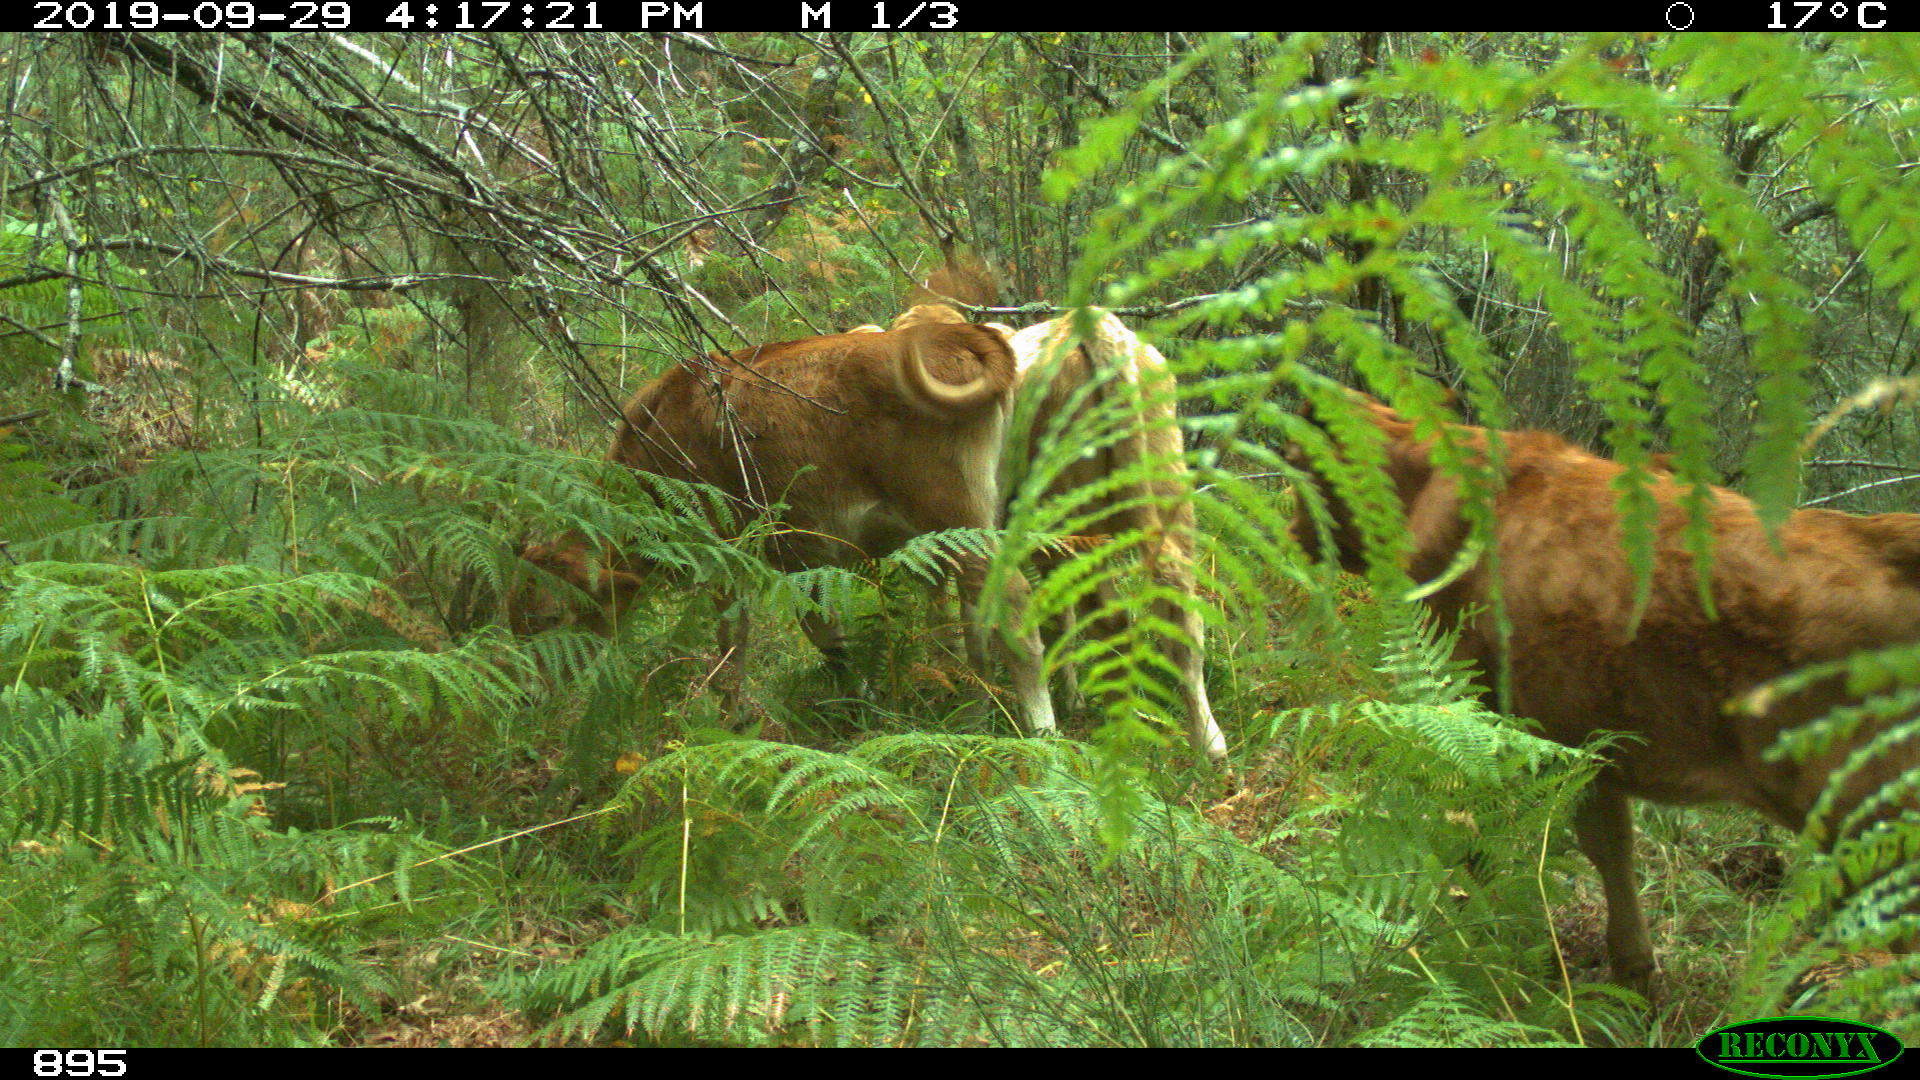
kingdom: Animalia
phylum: Chordata
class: Mammalia
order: Artiodactyla
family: Bovidae
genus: Bos
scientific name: Bos taurus
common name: Domesticated cattle
